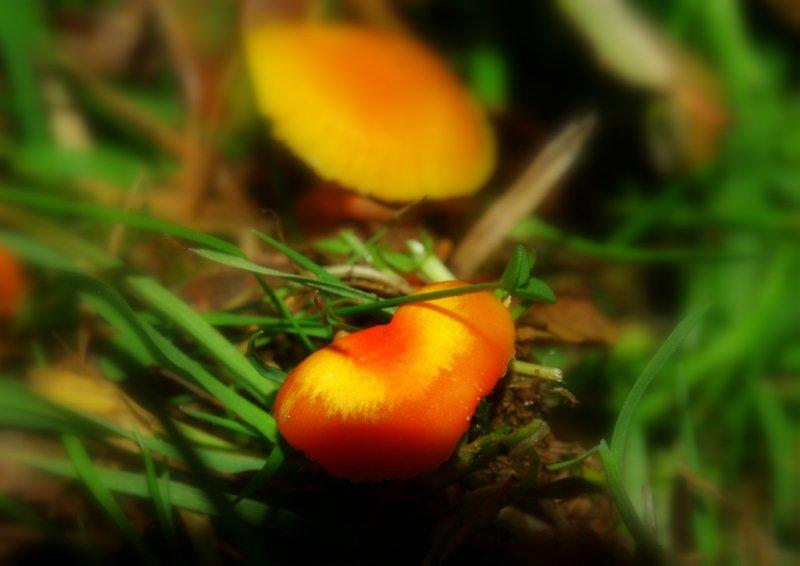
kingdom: Fungi
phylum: Basidiomycota
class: Agaricomycetes
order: Agaricales
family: Hygrophoraceae
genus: Hygrocybe
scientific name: Hygrocybe
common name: vokshat
